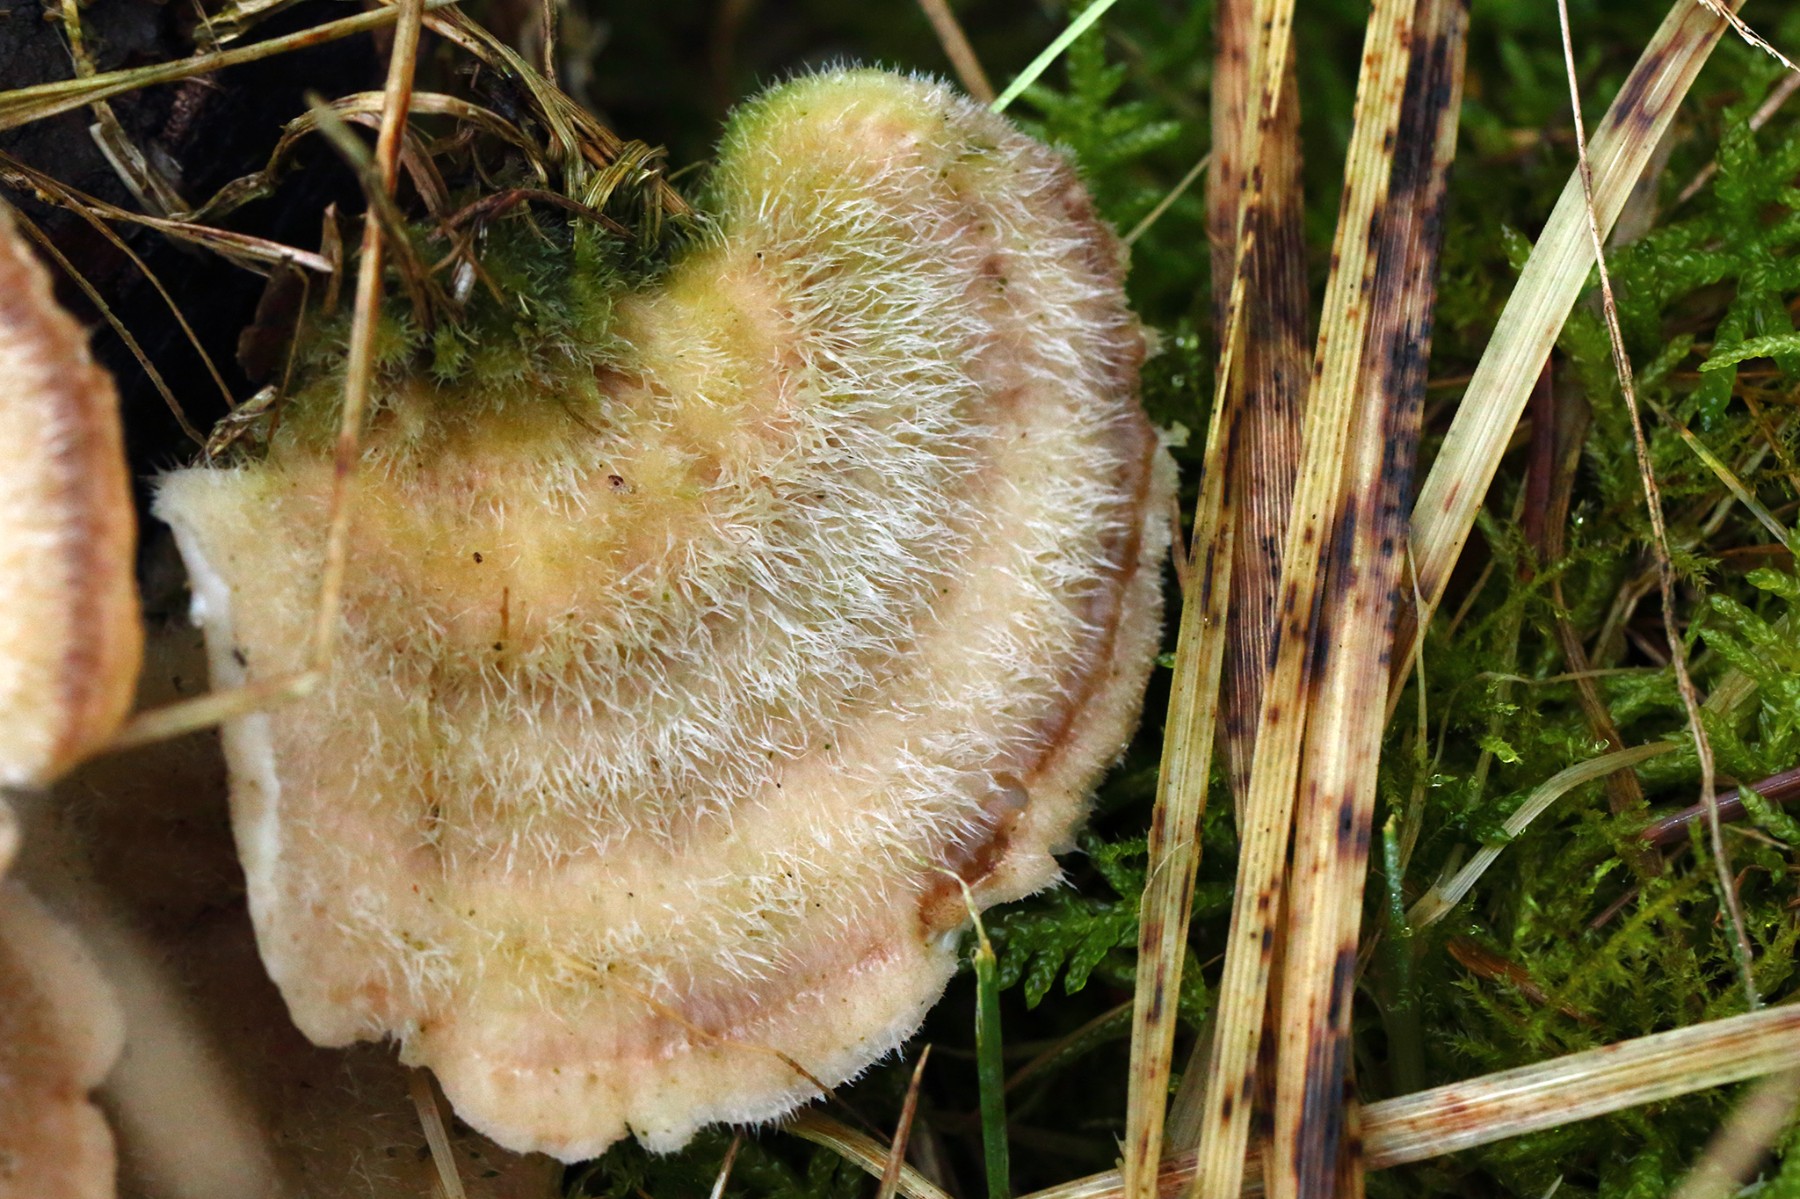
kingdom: Fungi
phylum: Basidiomycota
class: Agaricomycetes
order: Polyporales
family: Polyporaceae
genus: Trametes
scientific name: Trametes hirsuta
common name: håret læderporesvamp
